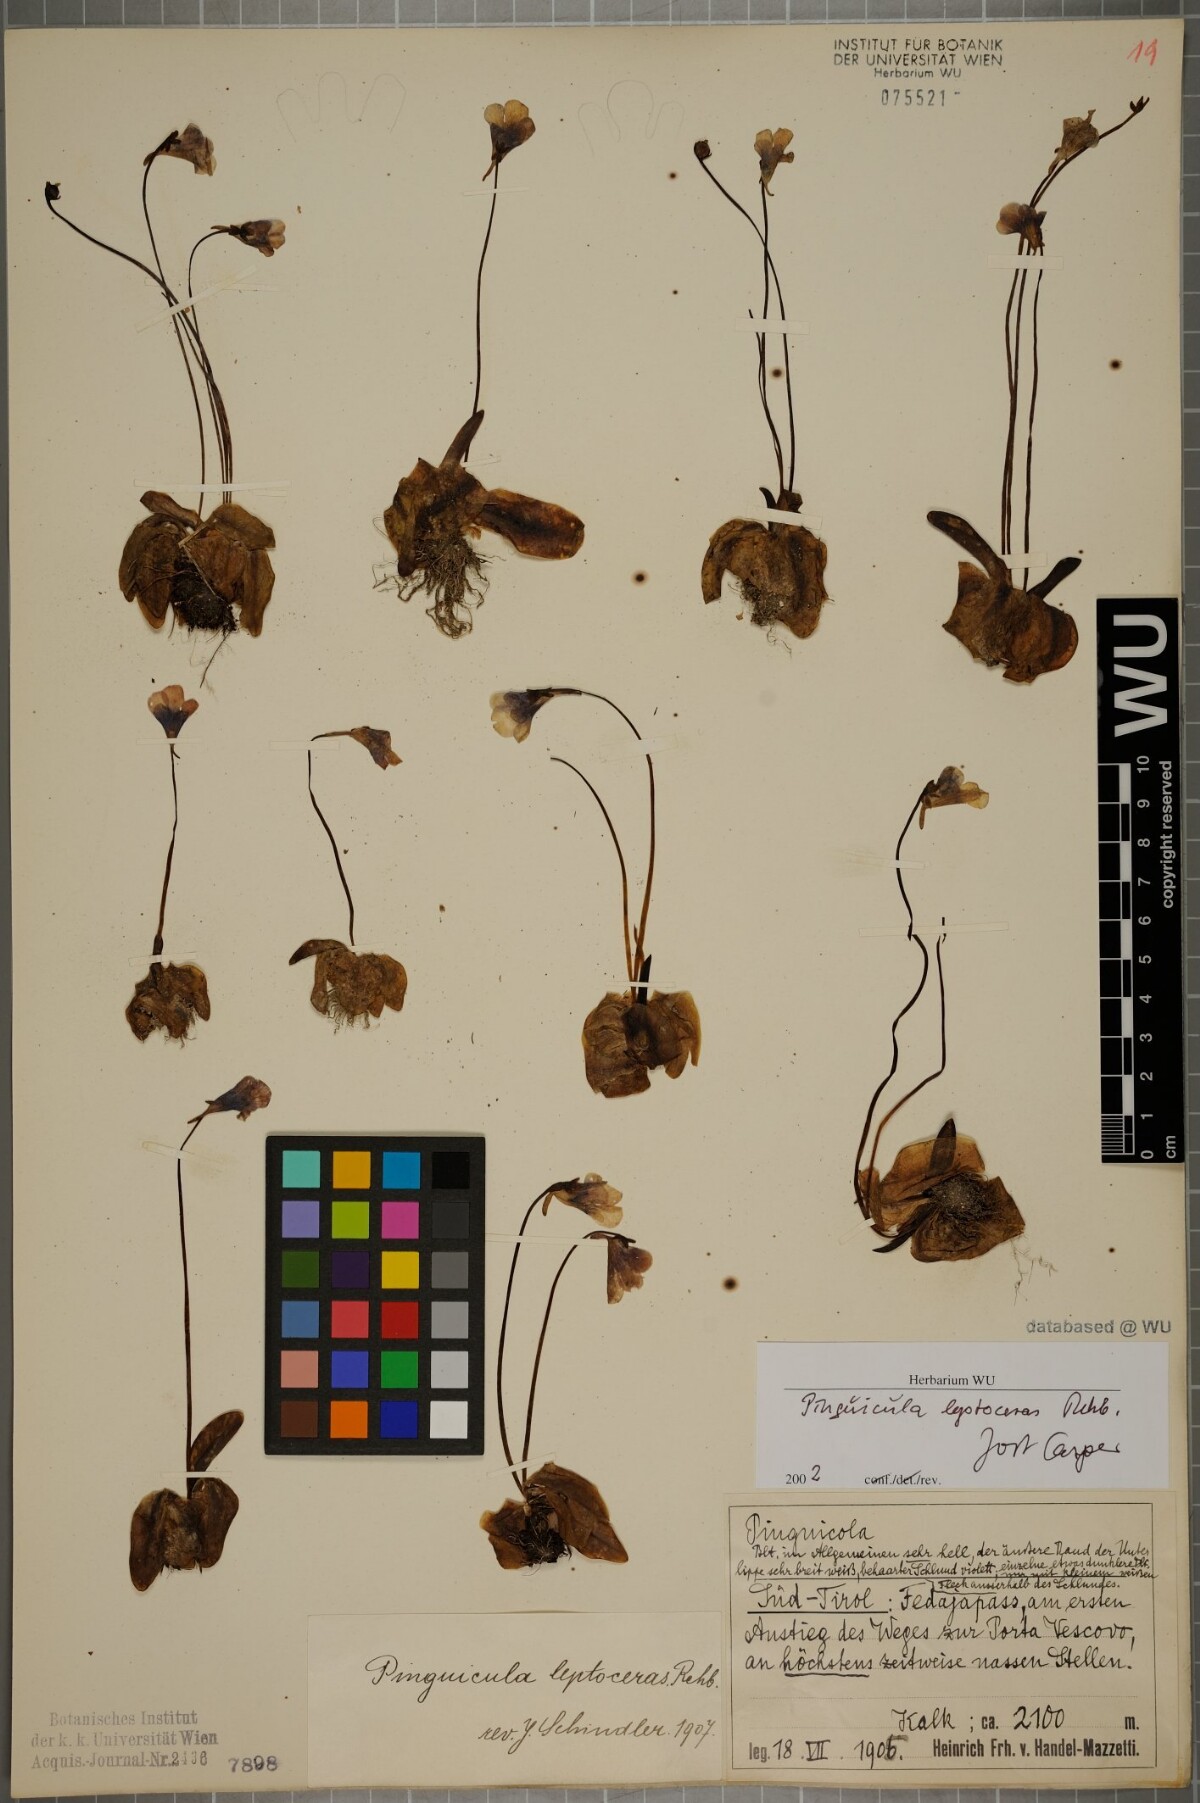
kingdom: Plantae
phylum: Tracheophyta
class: Magnoliopsida
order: Lamiales
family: Lentibulariaceae
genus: Pinguicula
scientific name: Pinguicula leptoceras
